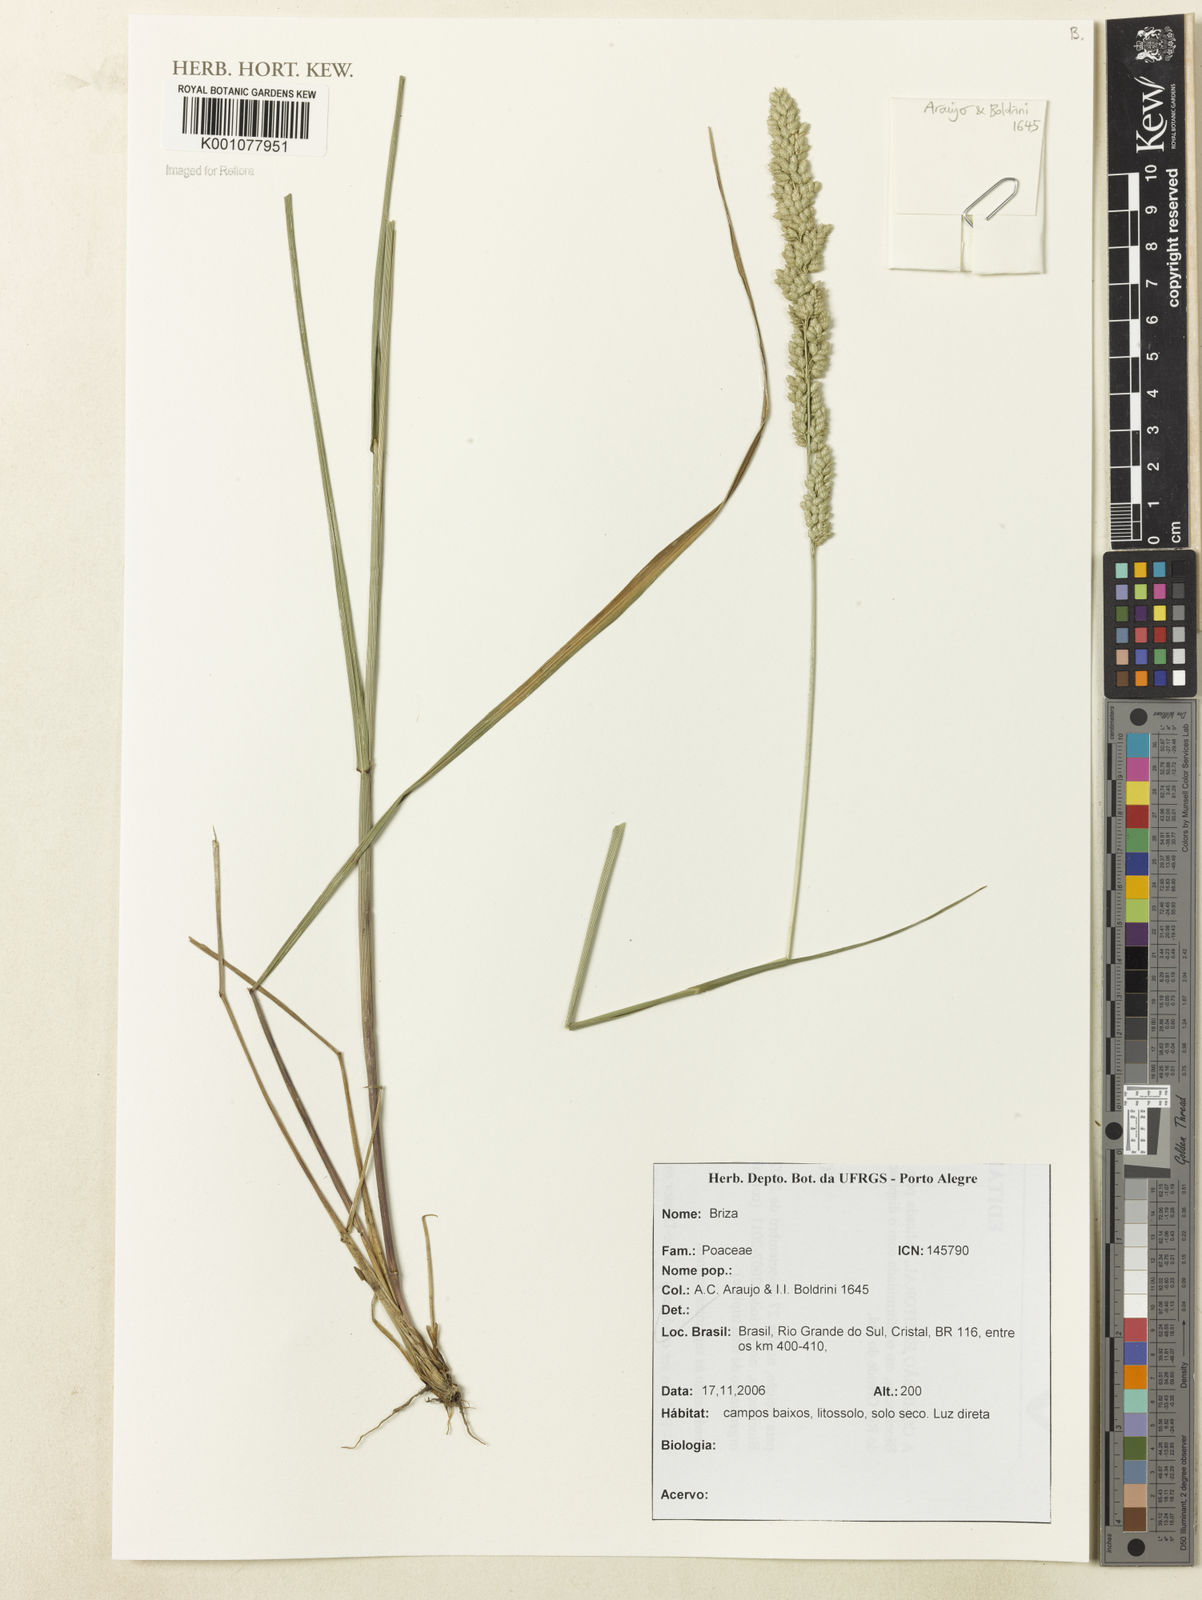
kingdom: Plantae
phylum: Tracheophyta
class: Liliopsida
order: Poales
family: Poaceae
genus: Briza
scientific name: Briza
